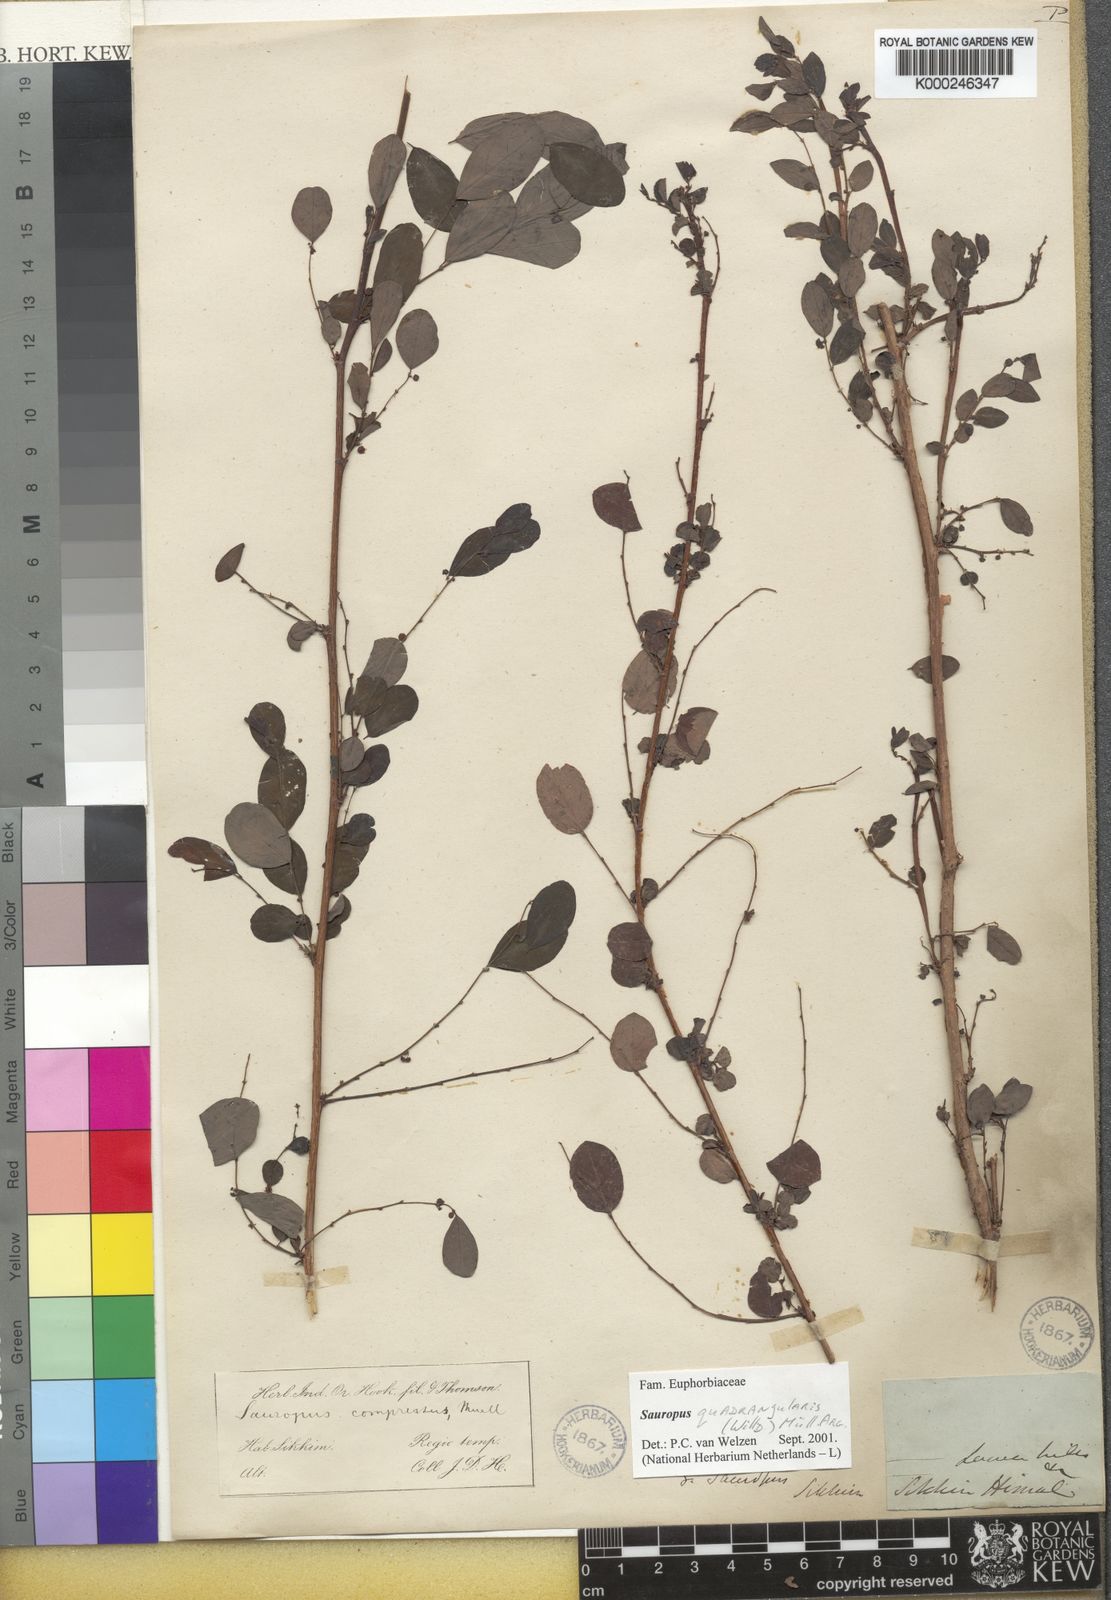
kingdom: Animalia
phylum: Chordata
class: Amphibia
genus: Sauropus
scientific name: Sauropus
